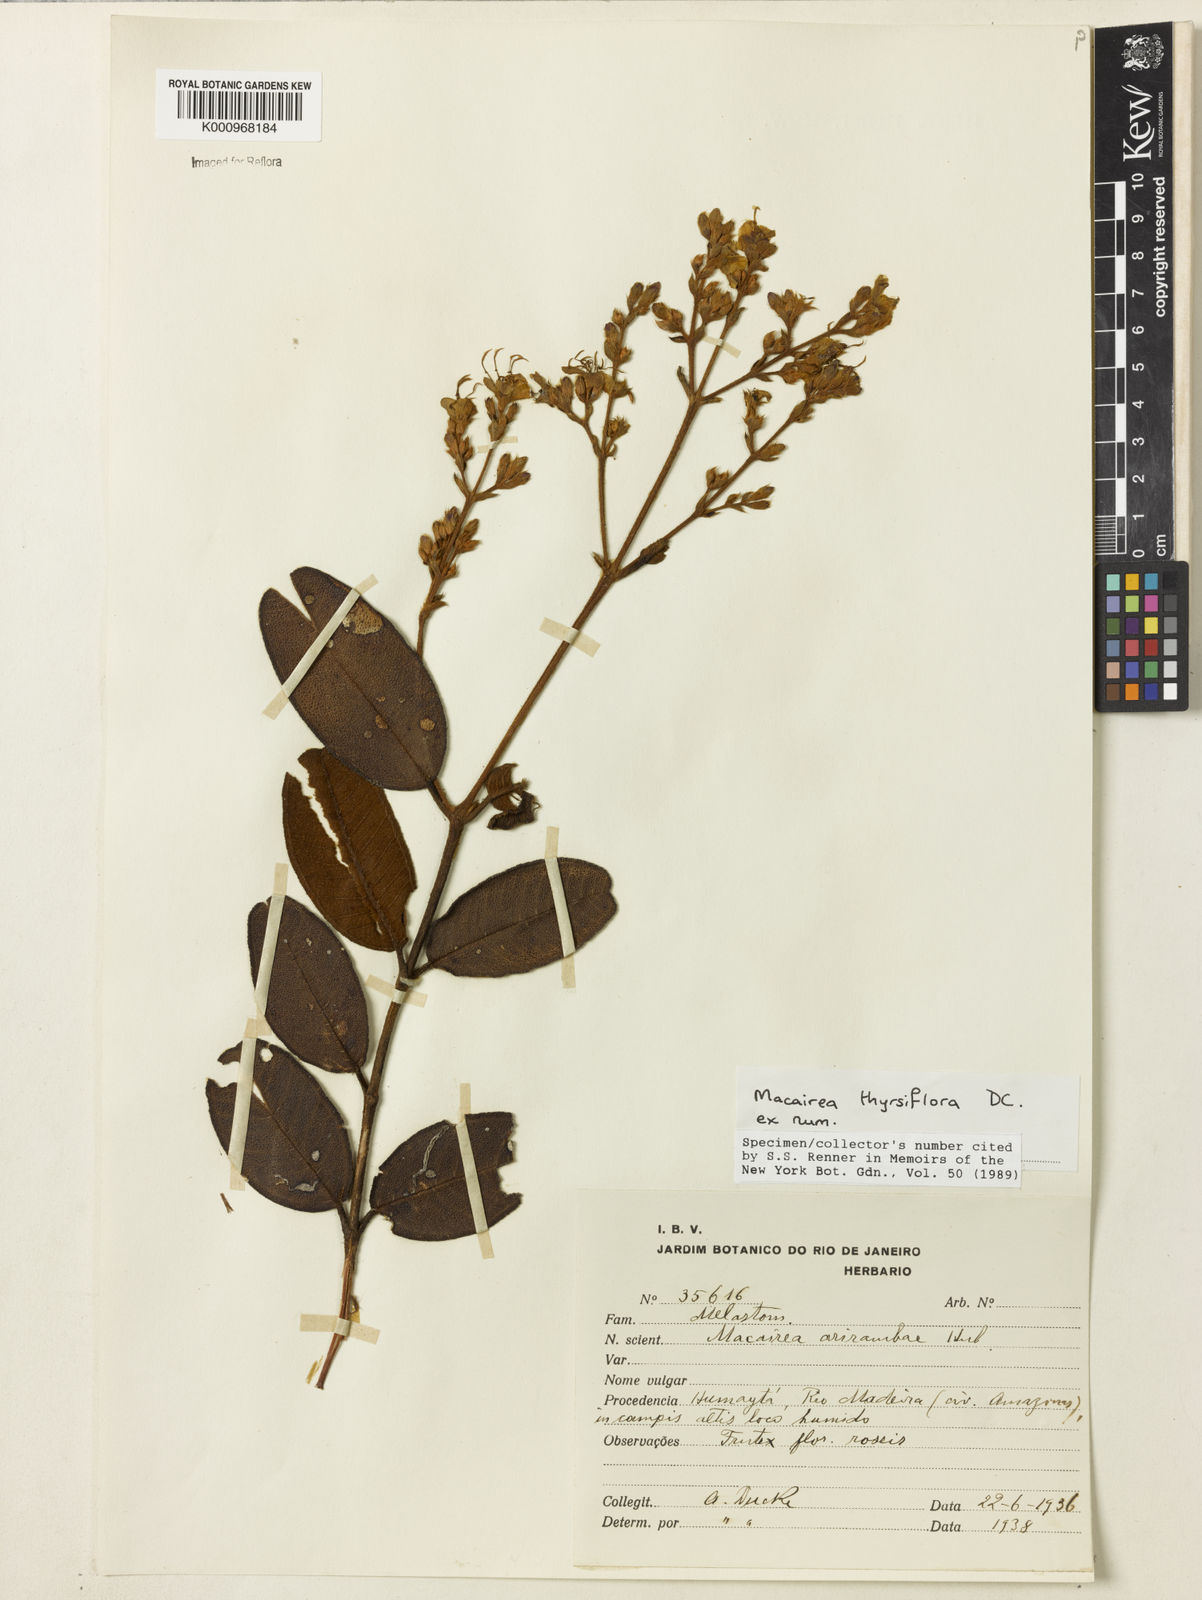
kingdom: Plantae
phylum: Tracheophyta
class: Magnoliopsida
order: Myrtales
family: Melastomataceae
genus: Macairea
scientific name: Macairea thyrsiflora
